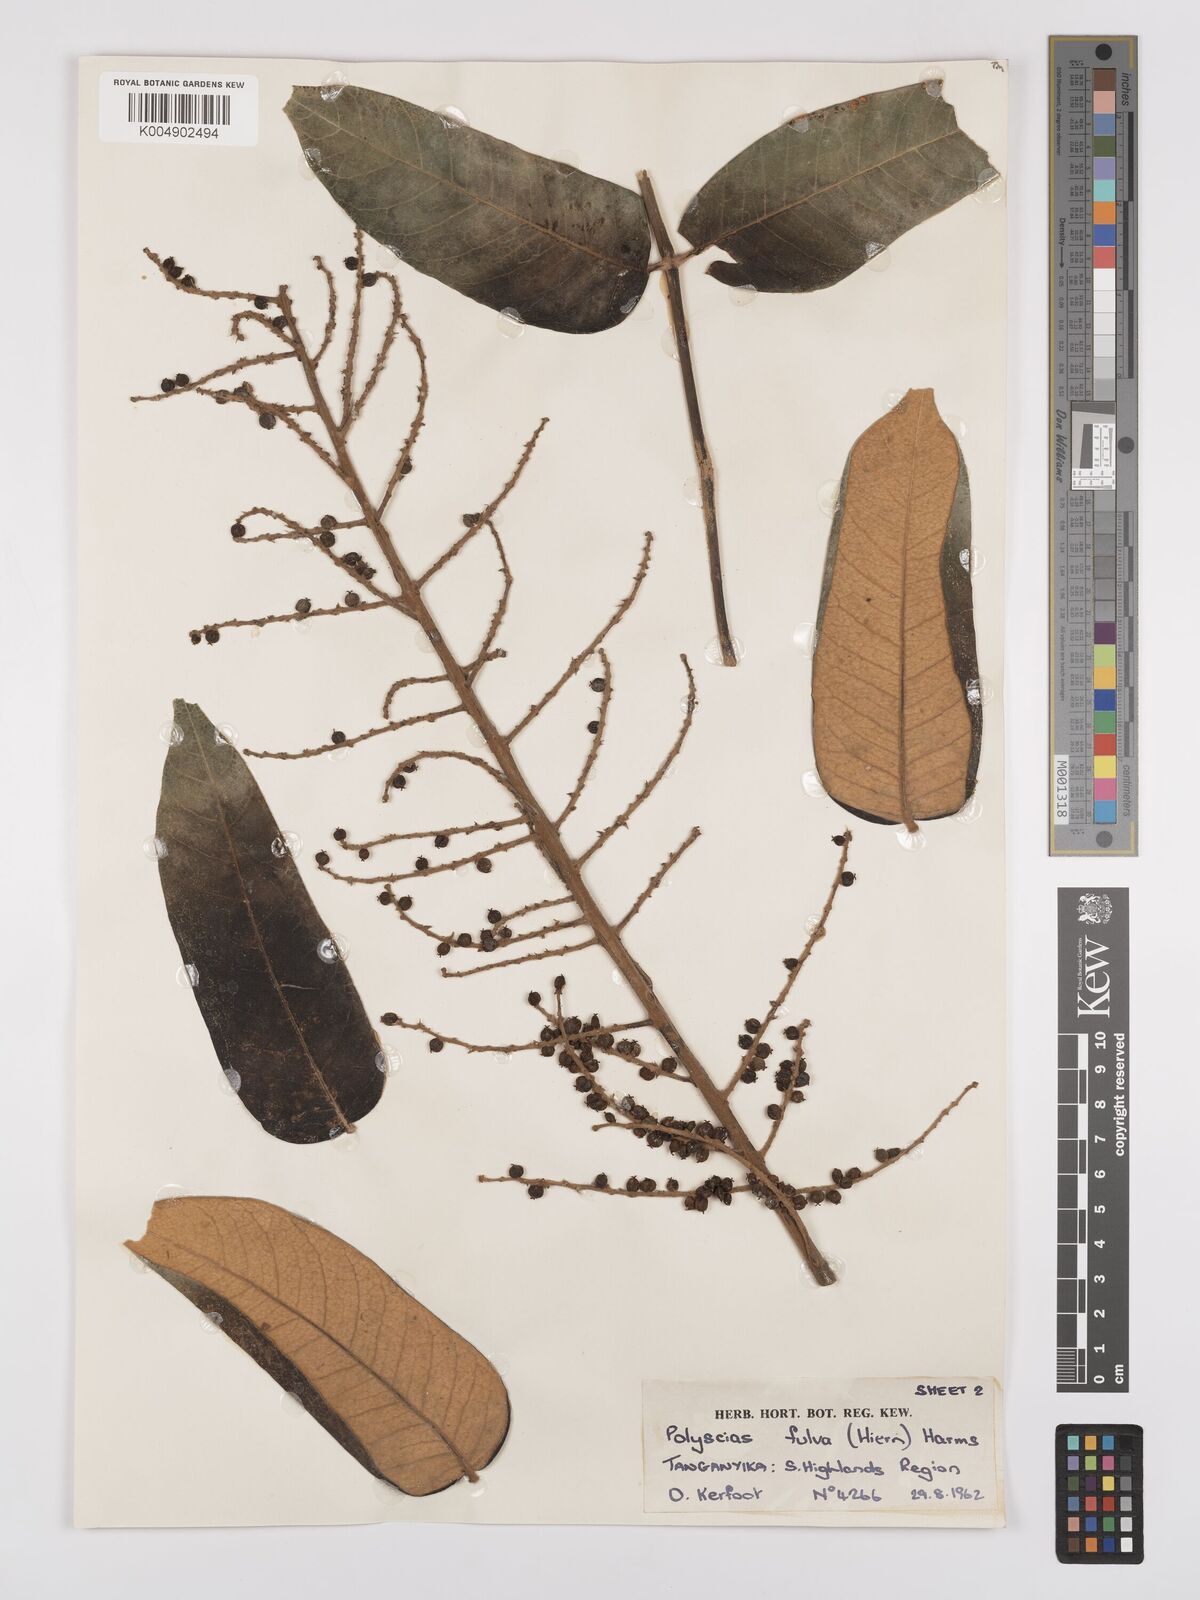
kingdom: Plantae
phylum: Tracheophyta
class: Magnoliopsida
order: Apiales
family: Araliaceae
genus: Polyscias
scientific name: Polyscias fulva
